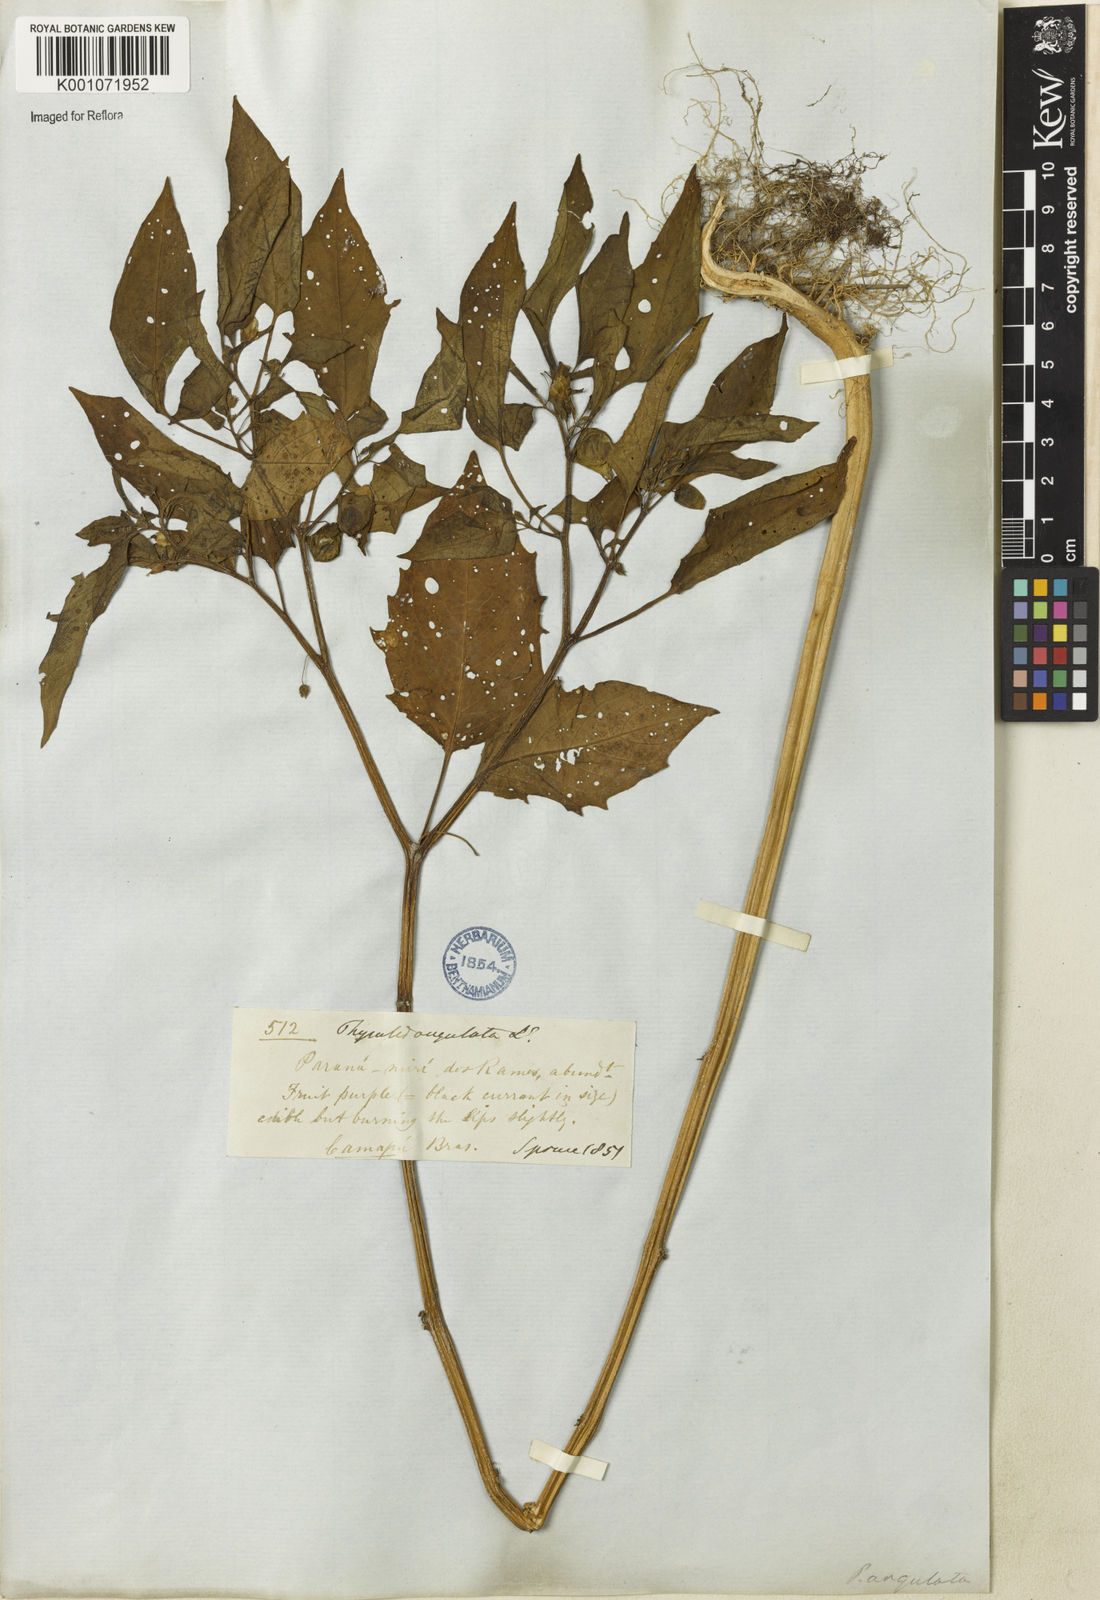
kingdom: Plantae
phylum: Tracheophyta
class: Magnoliopsida
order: Solanales
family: Solanaceae
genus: Physalis
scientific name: Physalis angulata
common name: Angular winter-cherry
